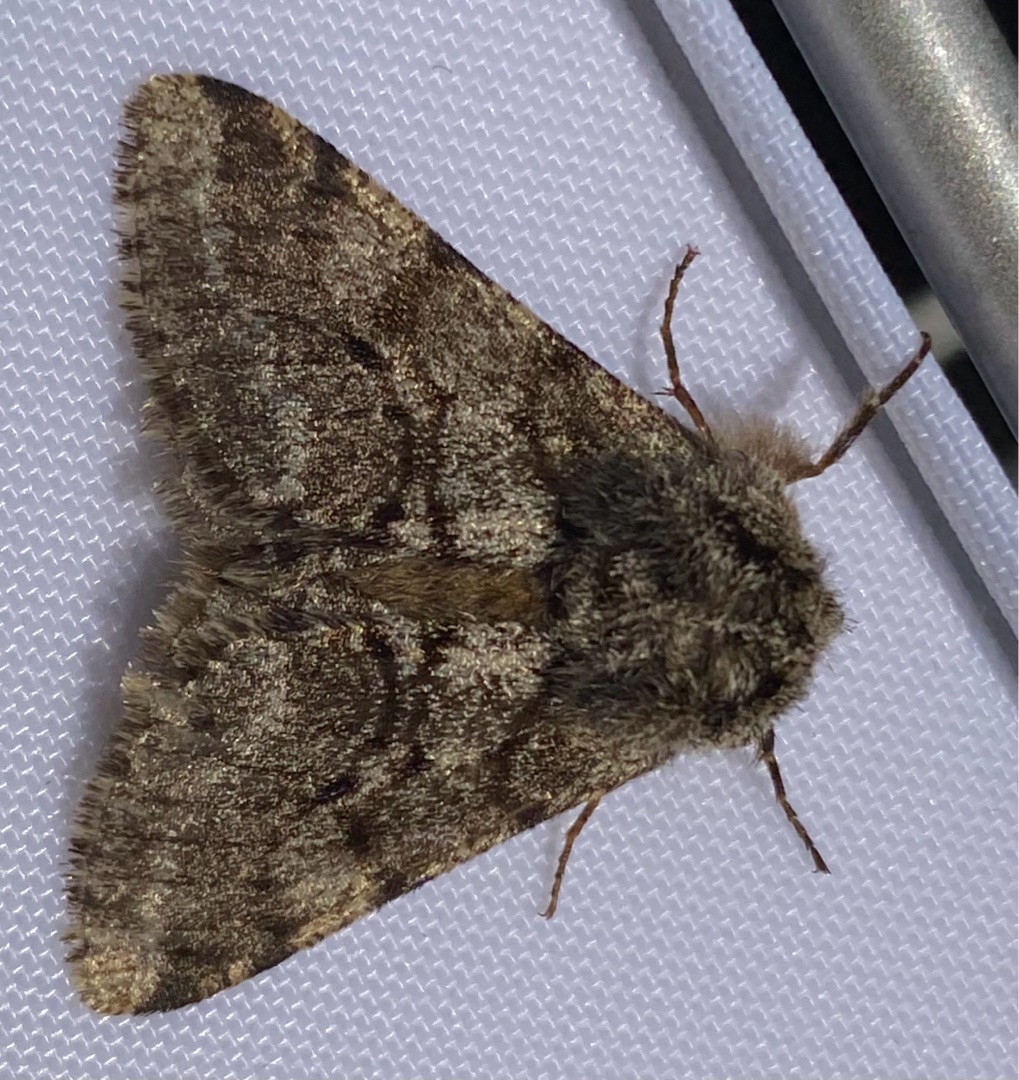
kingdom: Animalia
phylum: Arthropoda
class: Insecta
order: Lepidoptera
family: Geometridae
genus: Lycia
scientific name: Lycia hirtaria
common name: Skægmåler
